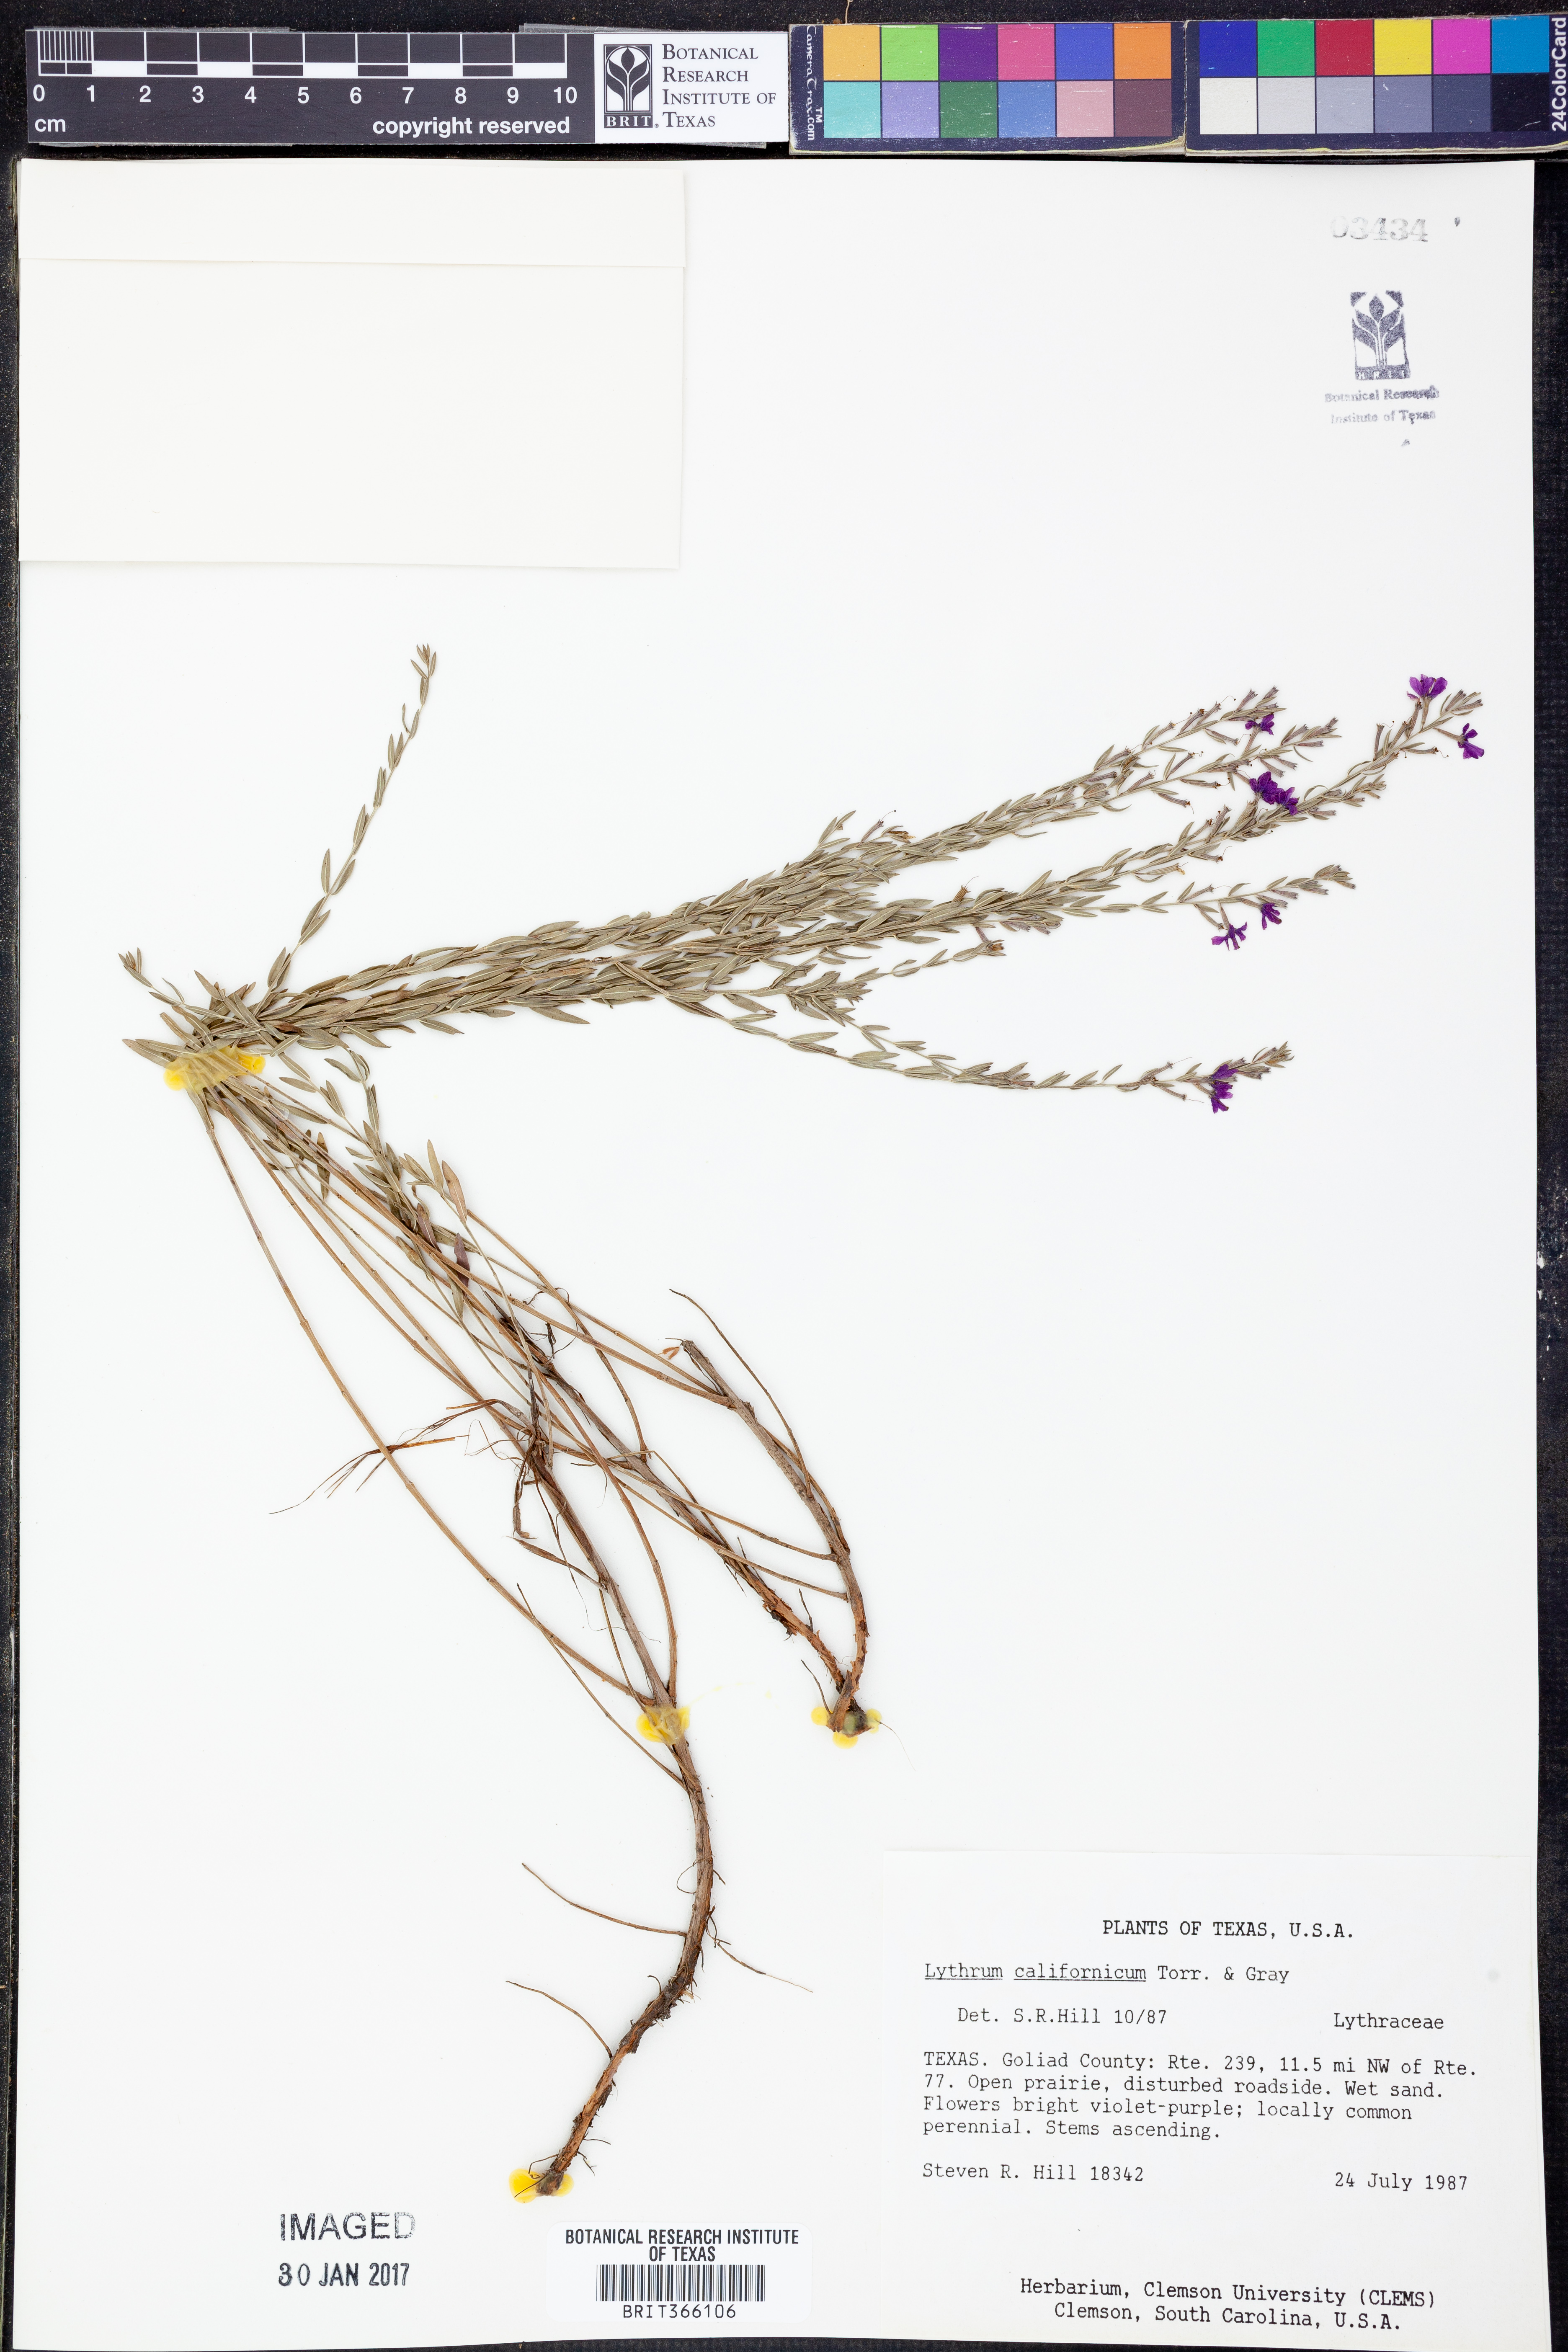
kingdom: Plantae
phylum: Tracheophyta
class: Magnoliopsida
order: Myrtales
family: Lythraceae
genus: Lythrum
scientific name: Lythrum californicum
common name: California loosestrife
